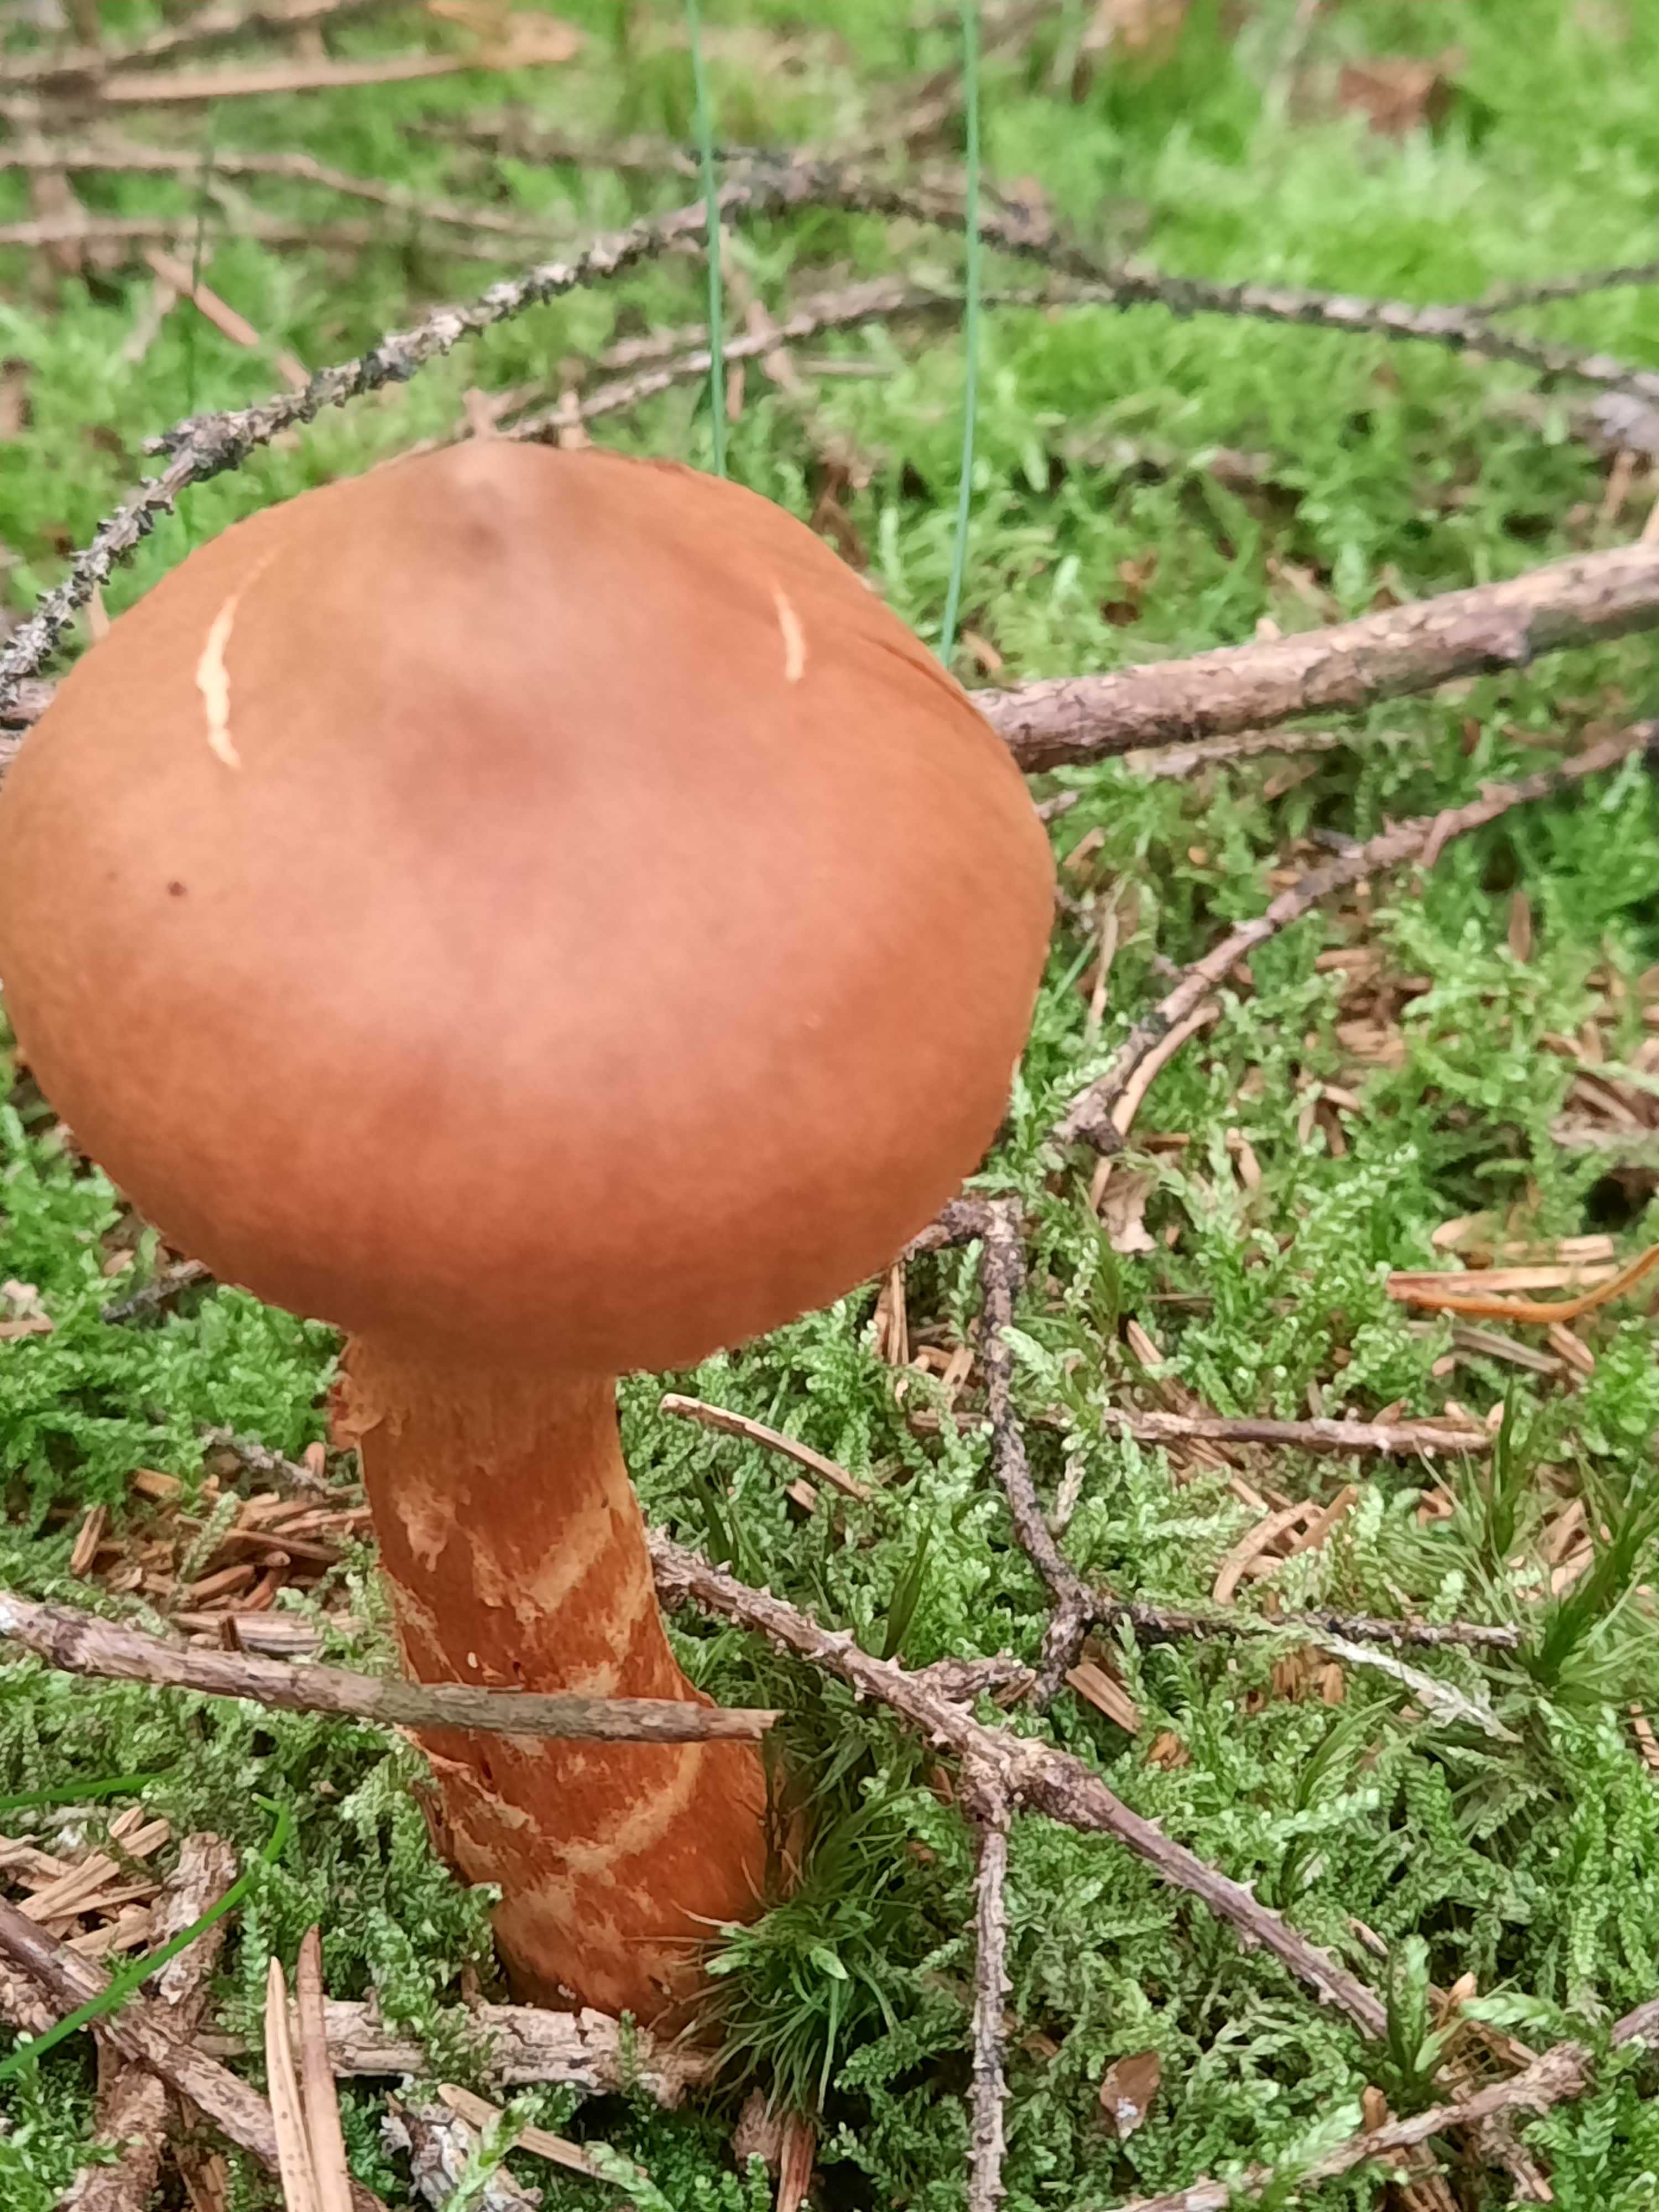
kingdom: Fungi
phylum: Basidiomycota
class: Agaricomycetes
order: Agaricales
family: Cortinariaceae
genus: Cortinarius
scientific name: Cortinarius rubellus
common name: puklet gift-slørhat
